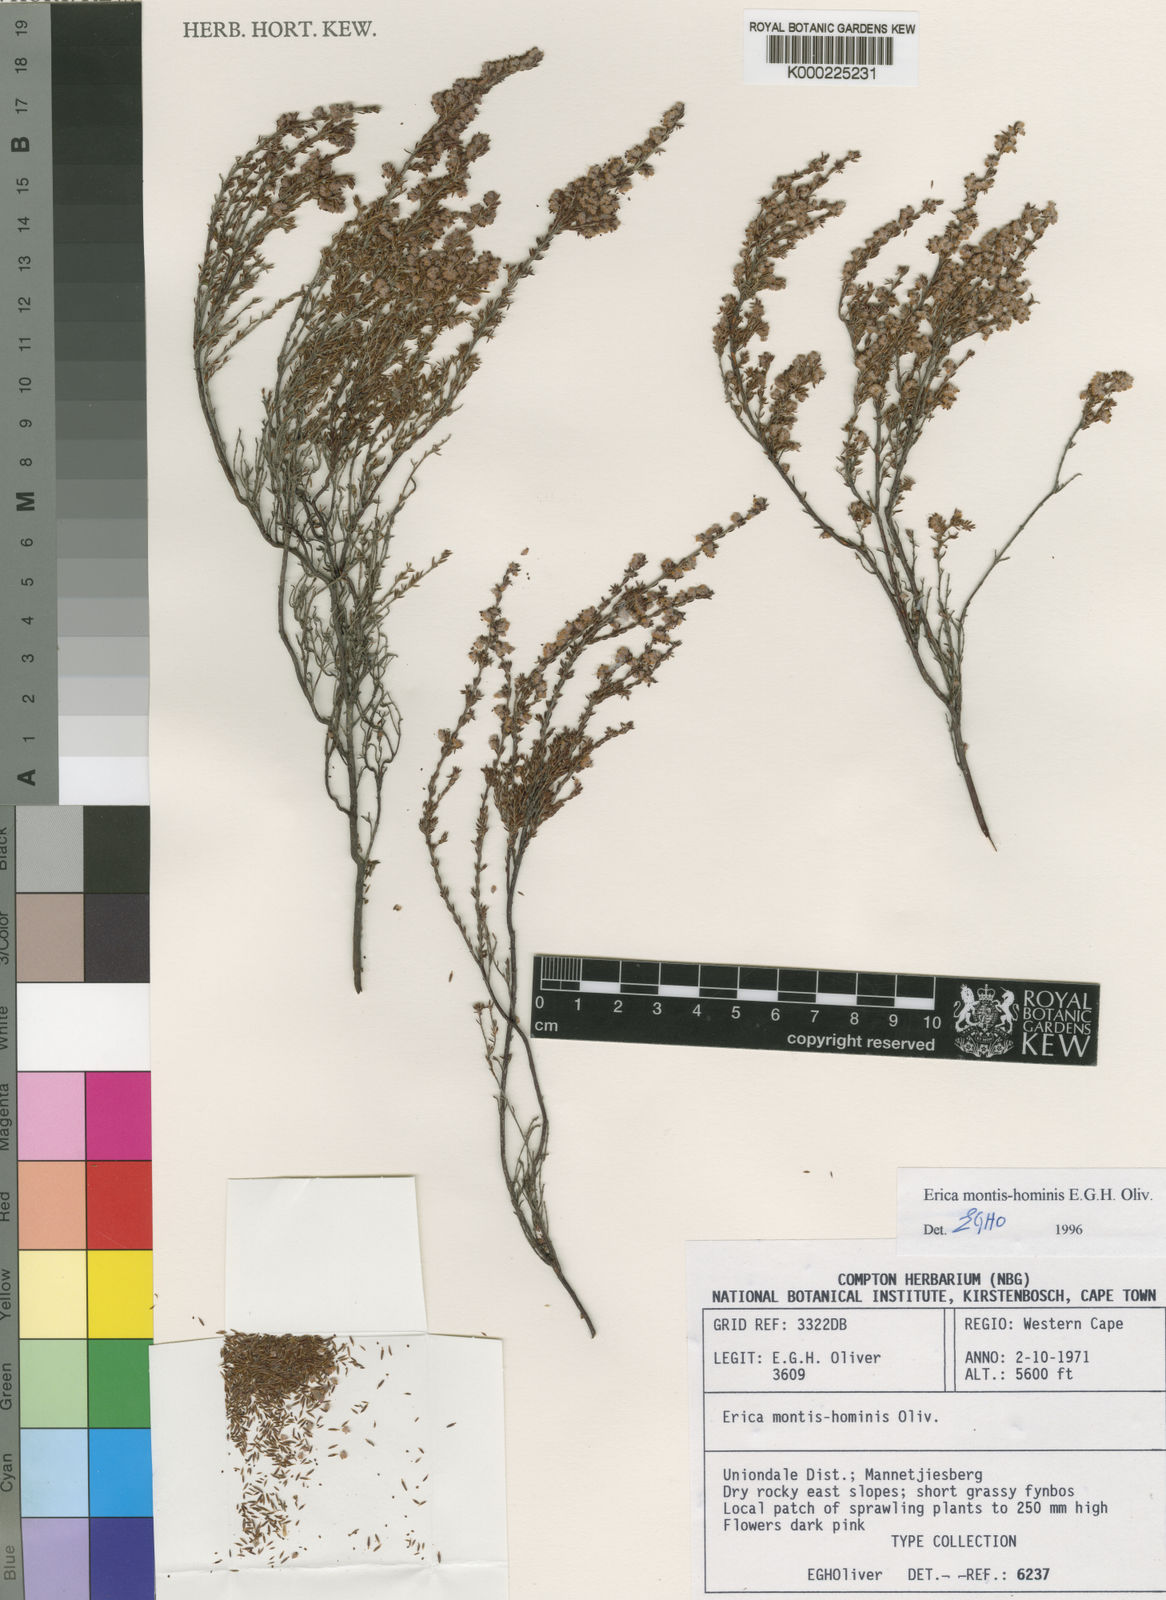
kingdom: Plantae
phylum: Tracheophyta
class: Magnoliopsida
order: Ericales
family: Ericaceae
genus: Erica
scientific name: Erica montis-hominis
